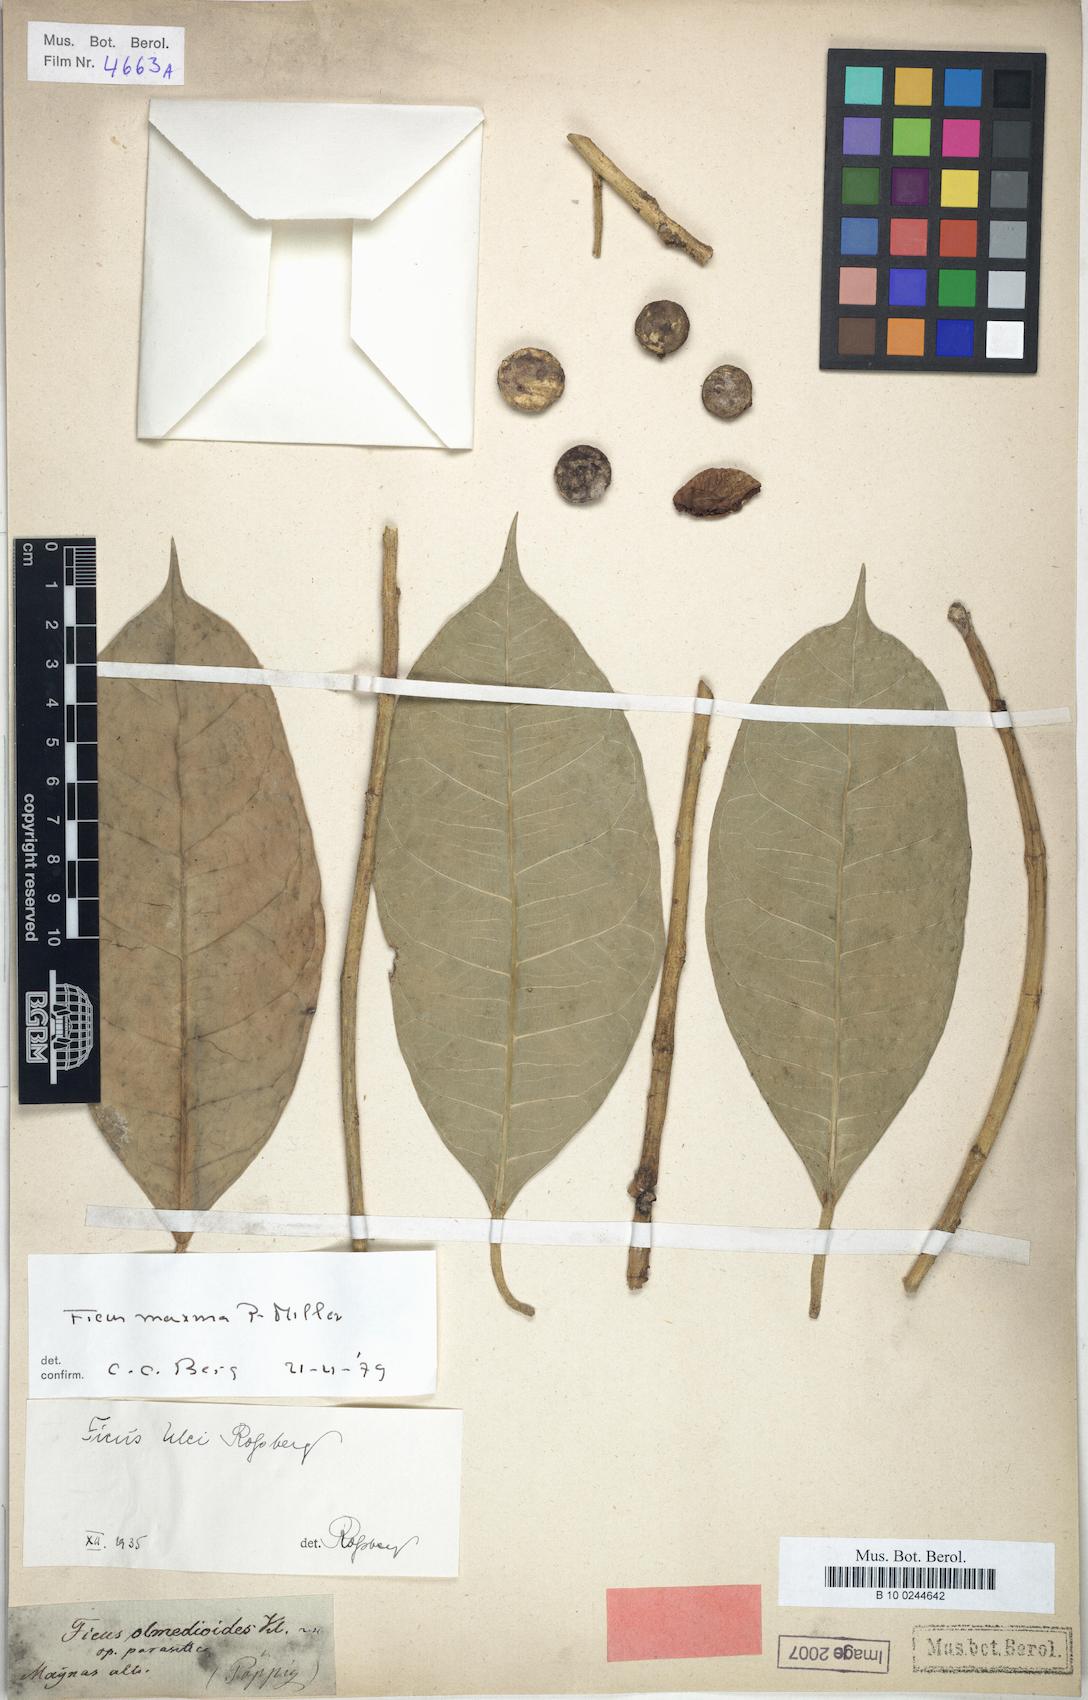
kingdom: Plantae
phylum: Tracheophyta
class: Magnoliopsida
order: Rosales
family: Moraceae
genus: Ficus
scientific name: Ficus maxima
